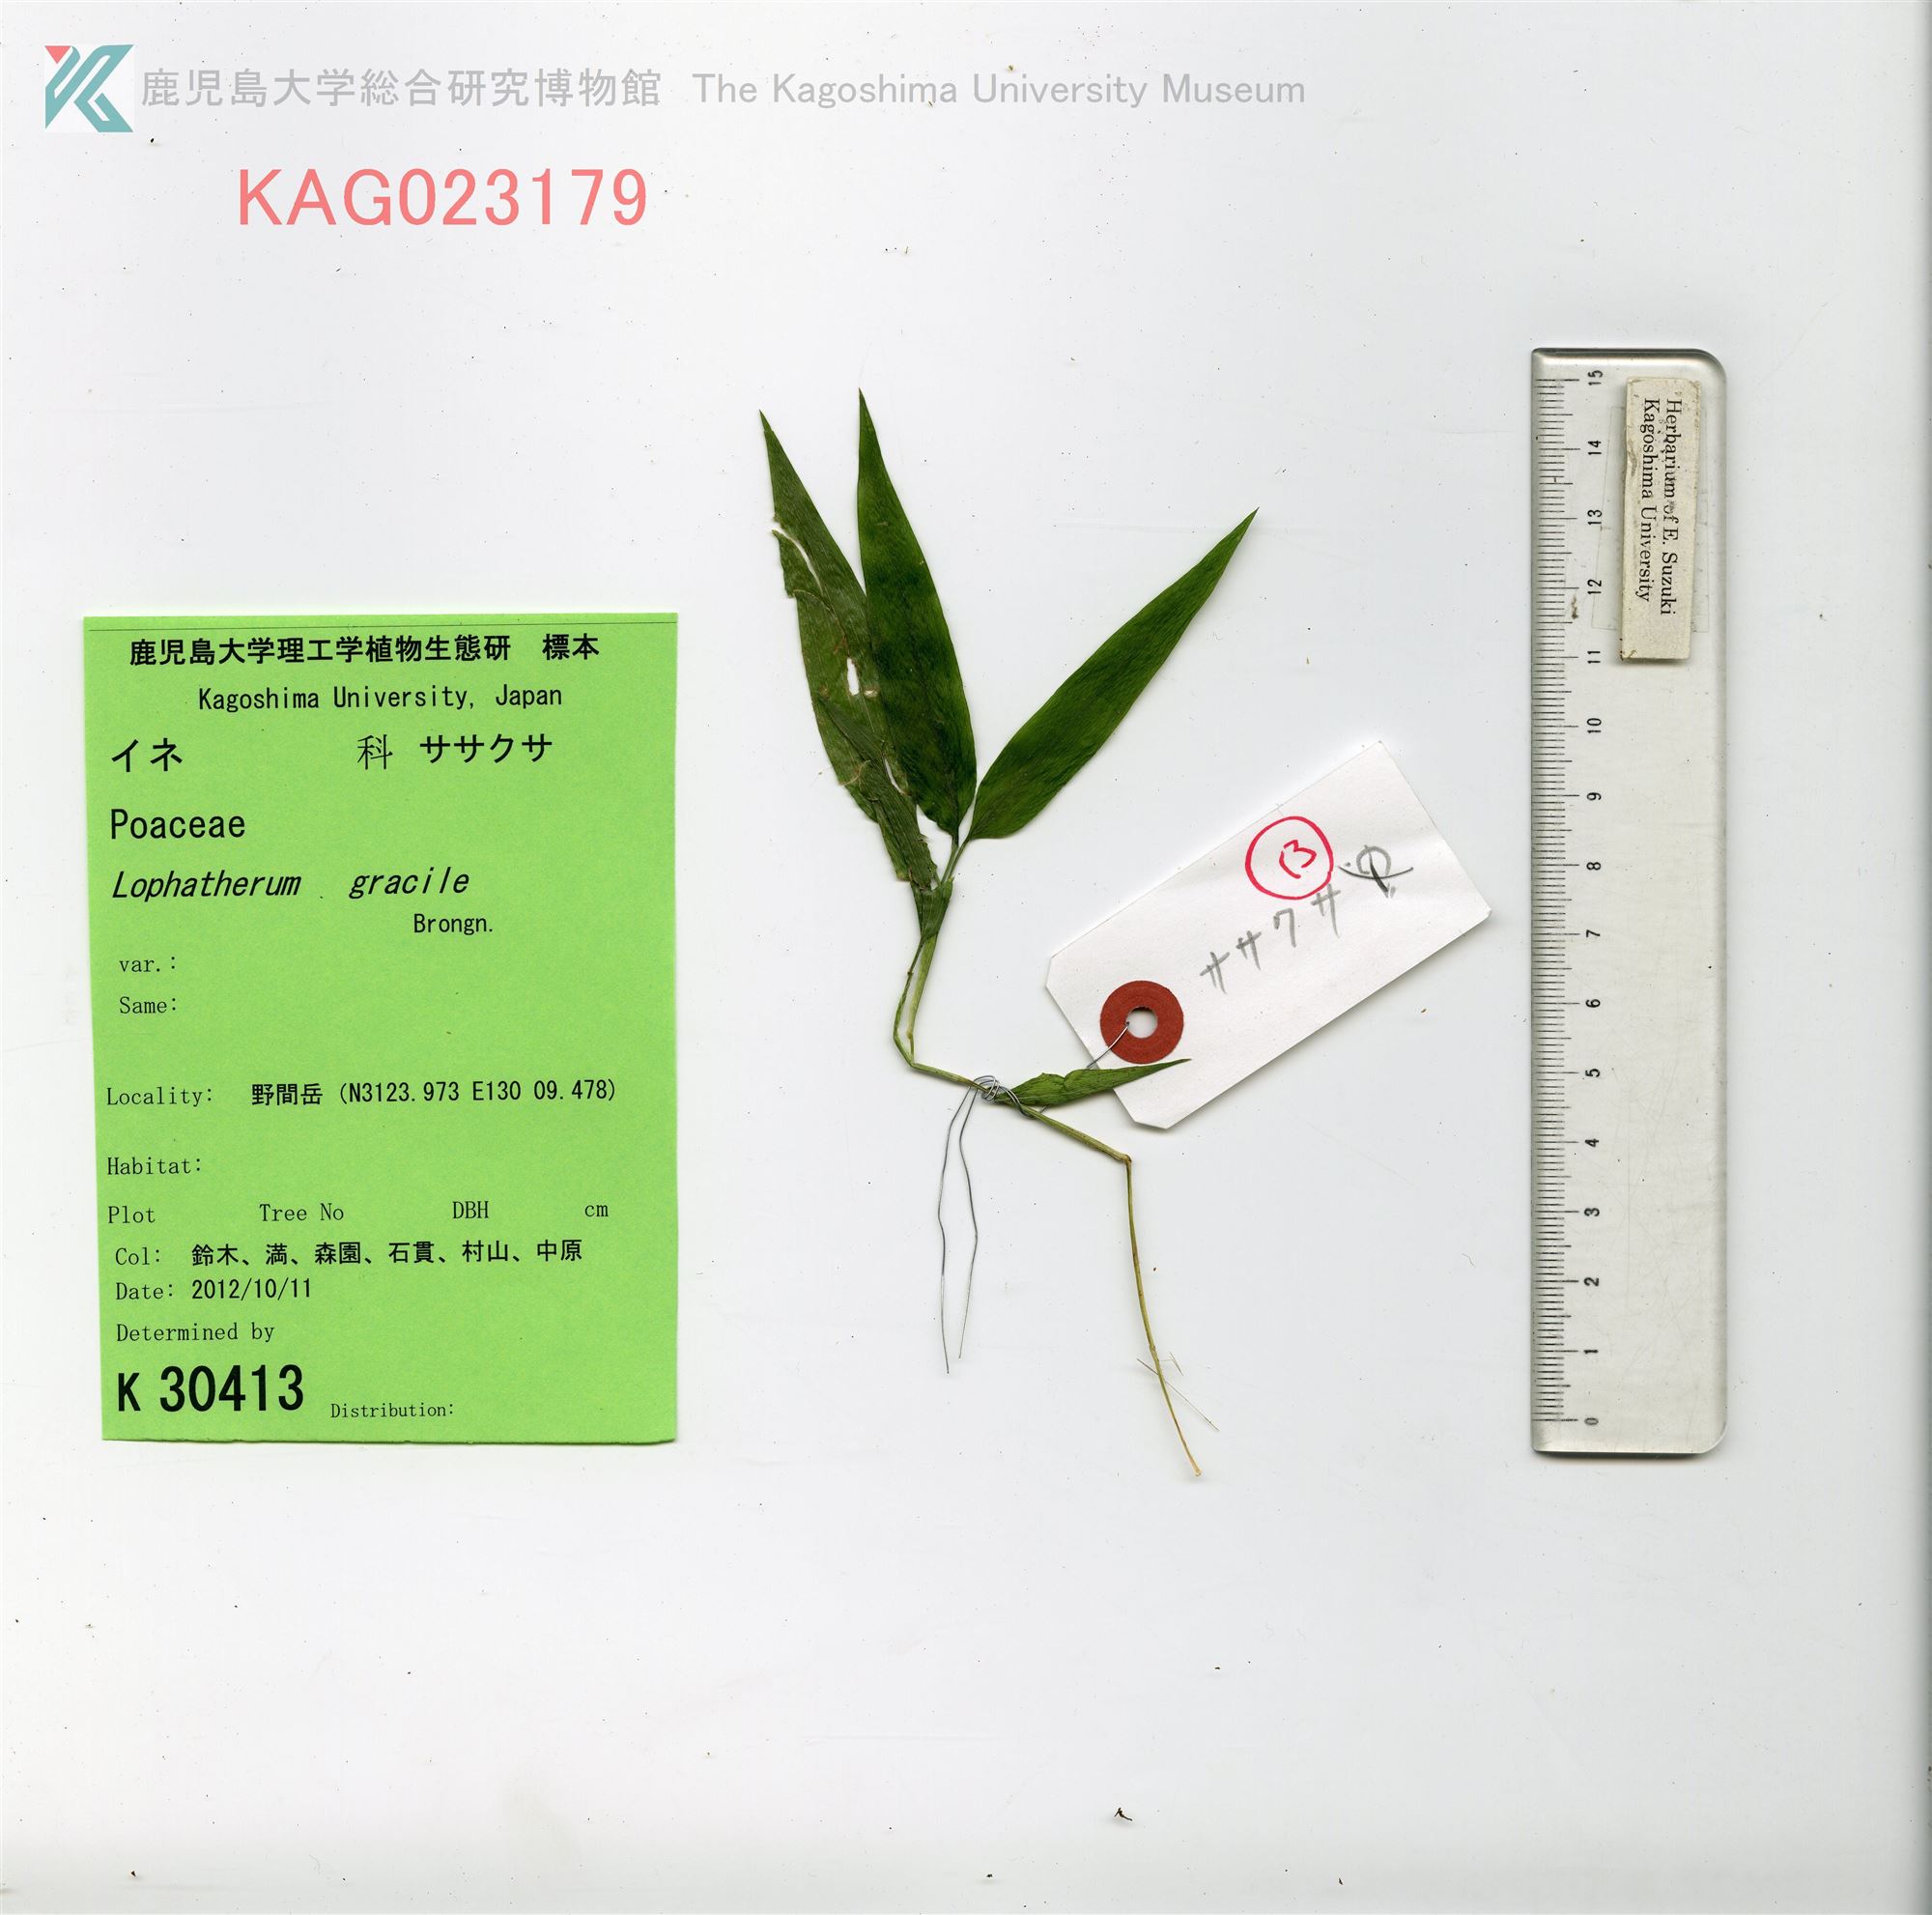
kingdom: Plantae
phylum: Tracheophyta
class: Liliopsida
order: Poales
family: Poaceae
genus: Lophatherum
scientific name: Lophatherum gracile
